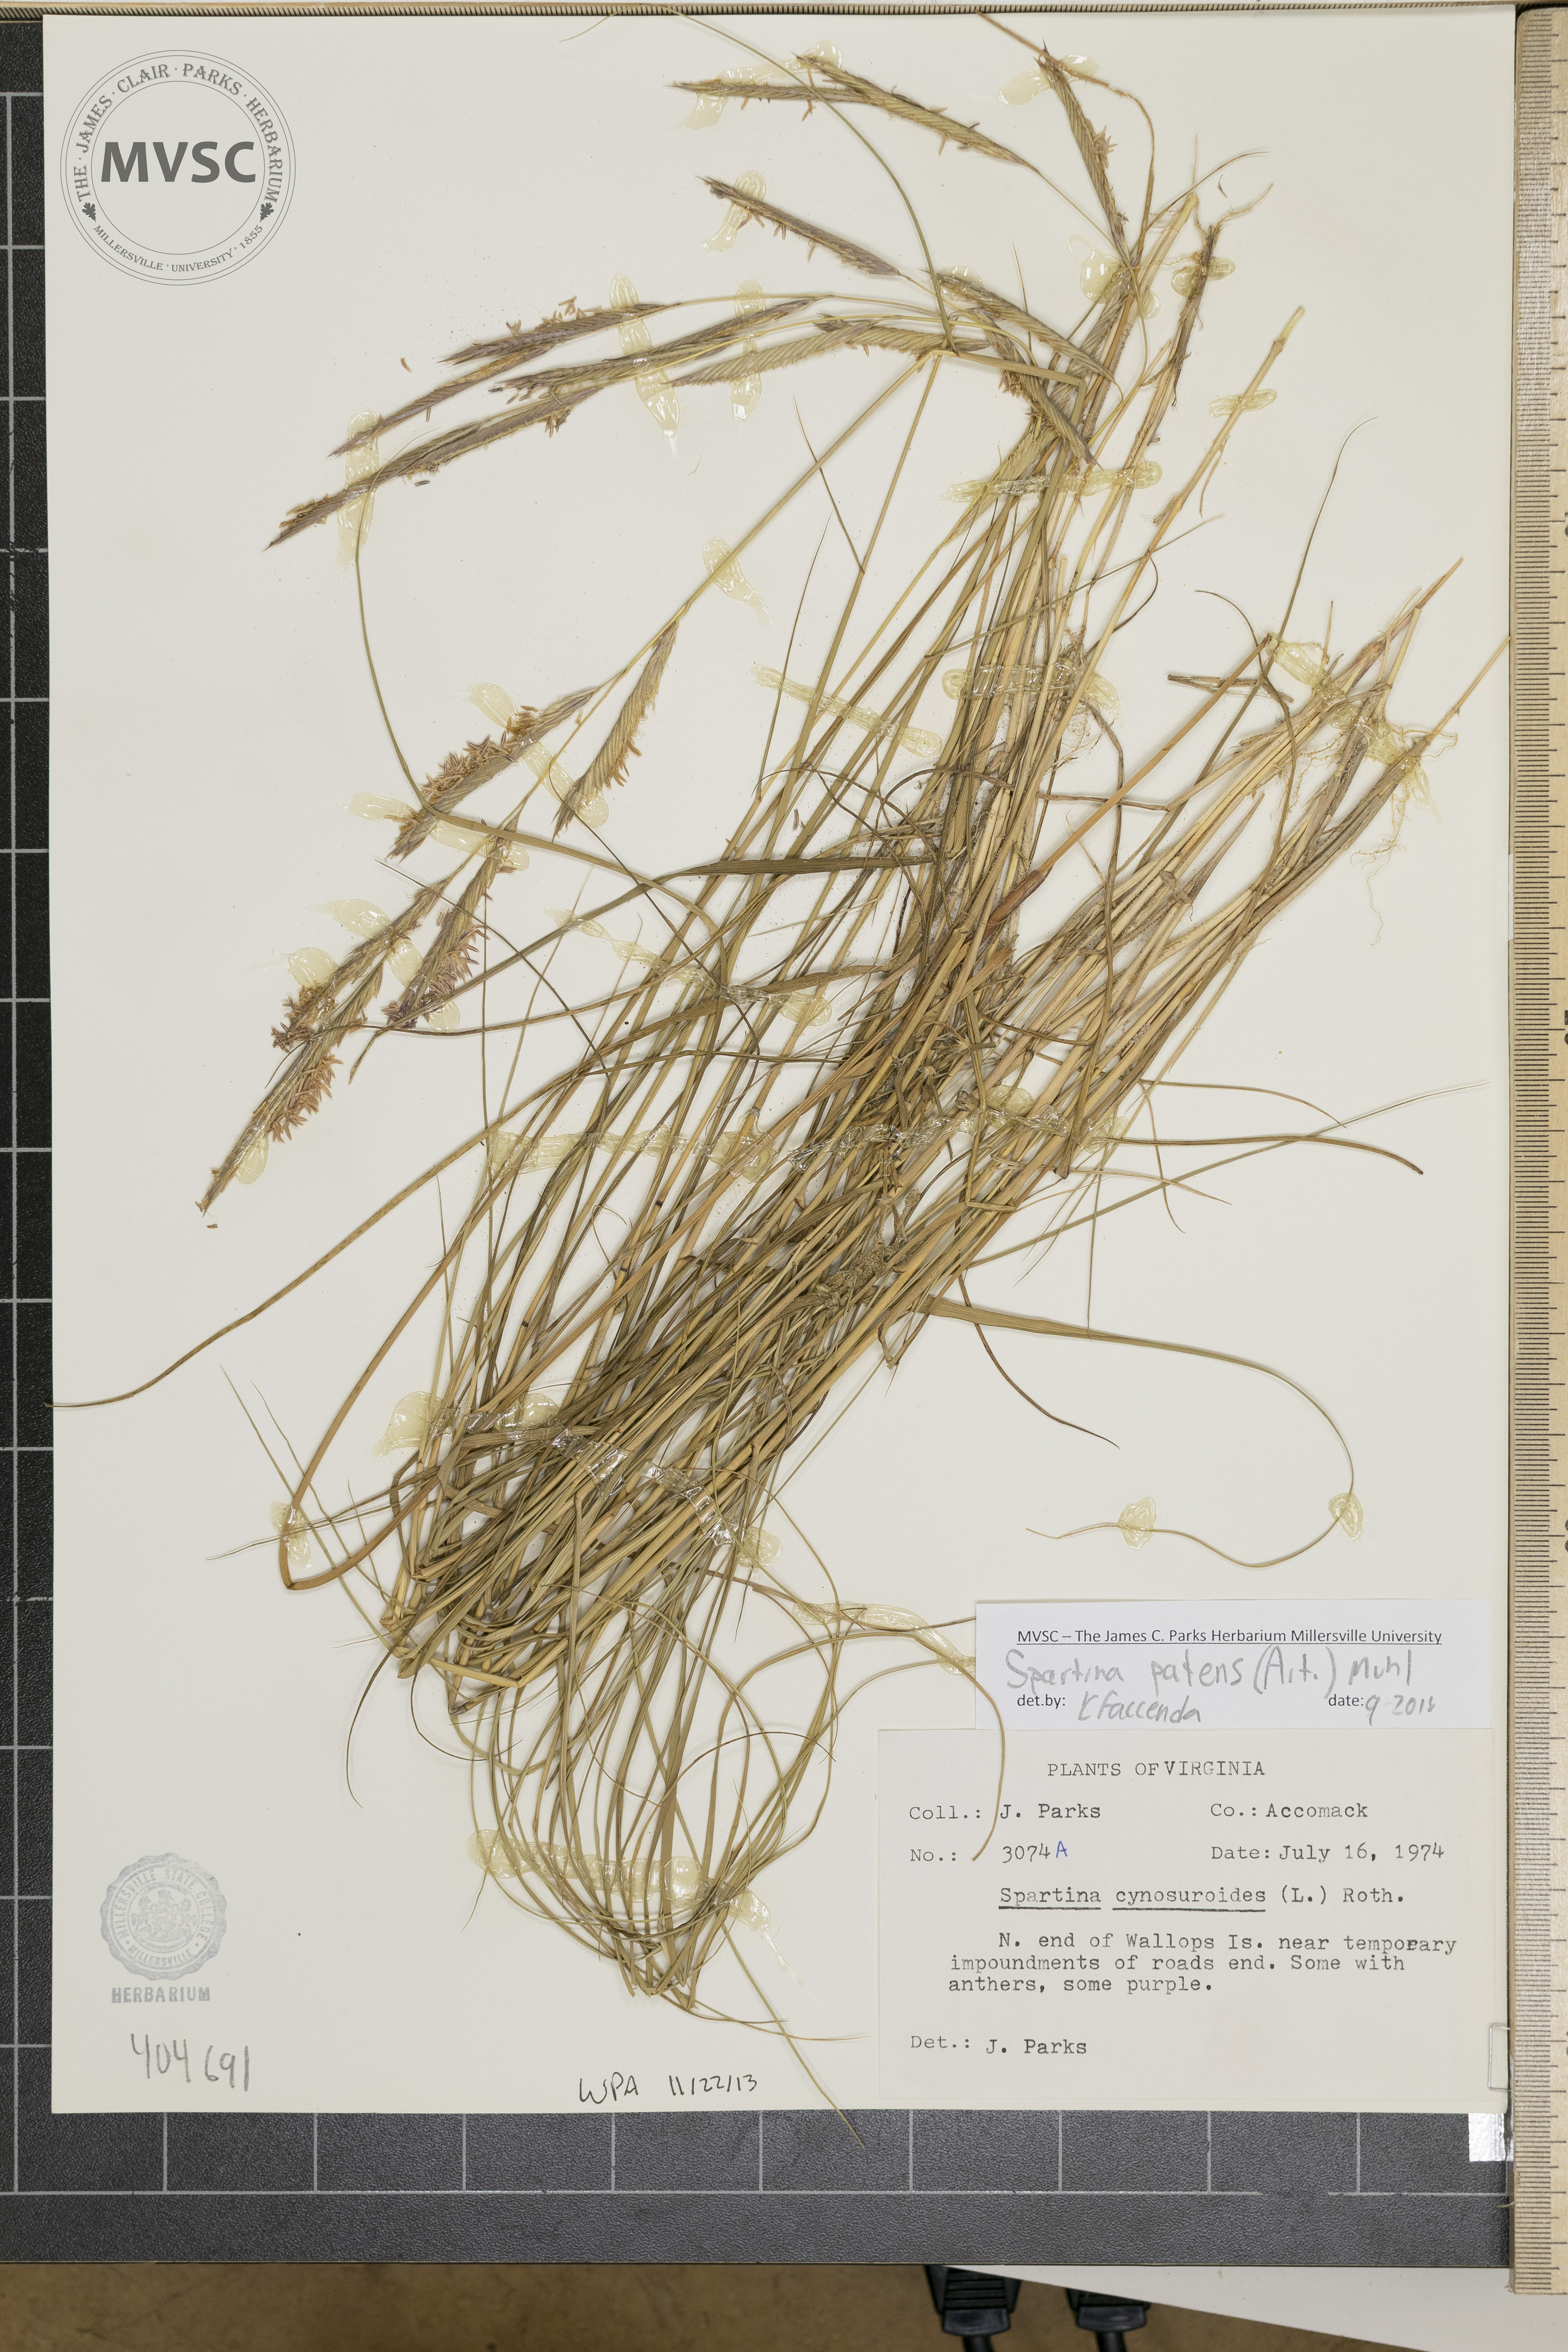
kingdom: Plantae
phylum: Tracheophyta
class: Liliopsida
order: Poales
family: Poaceae
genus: Sporobolus
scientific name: Sporobolus pumilus
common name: Highwater grass
